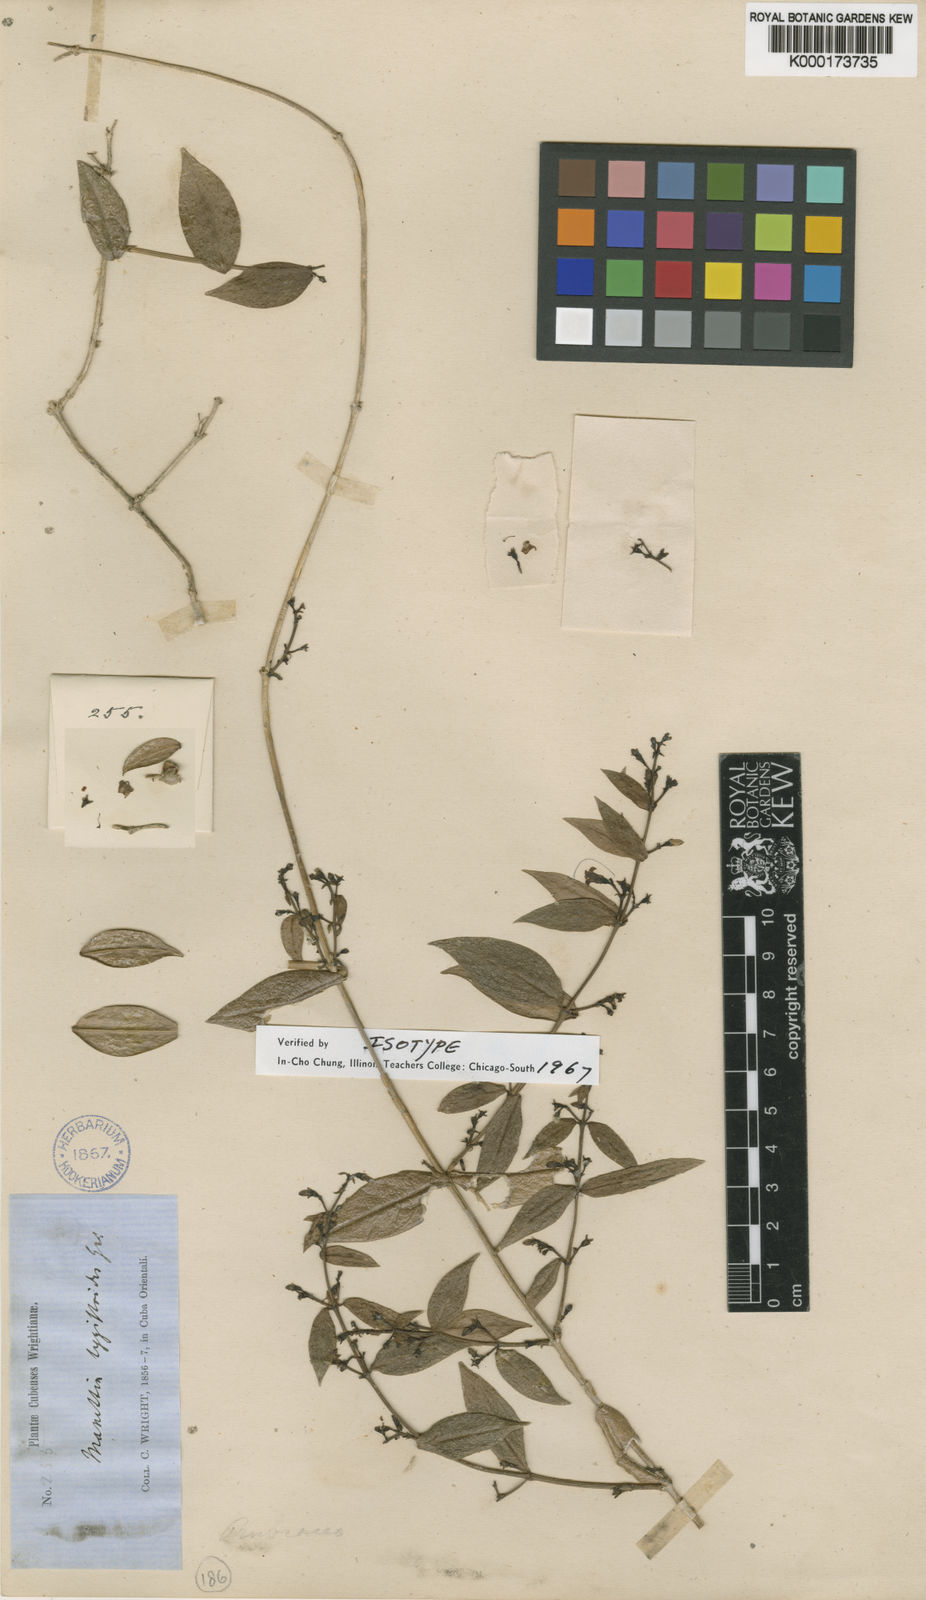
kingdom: Plantae
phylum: Tracheophyta
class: Magnoliopsida
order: Gentianales
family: Rubiaceae
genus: Manettia
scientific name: Manettia lygistum
